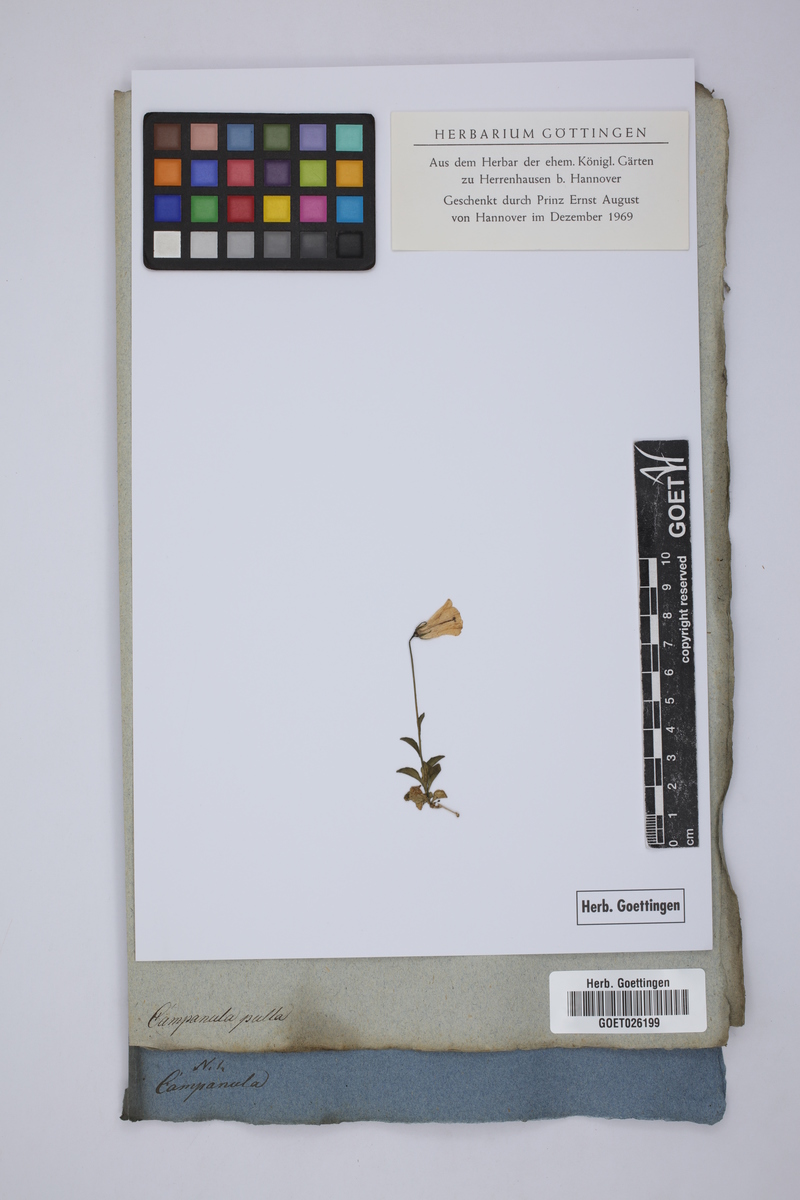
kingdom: Plantae
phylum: Tracheophyta
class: Magnoliopsida
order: Asterales
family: Campanulaceae
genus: Campanula
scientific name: Campanula pulla
